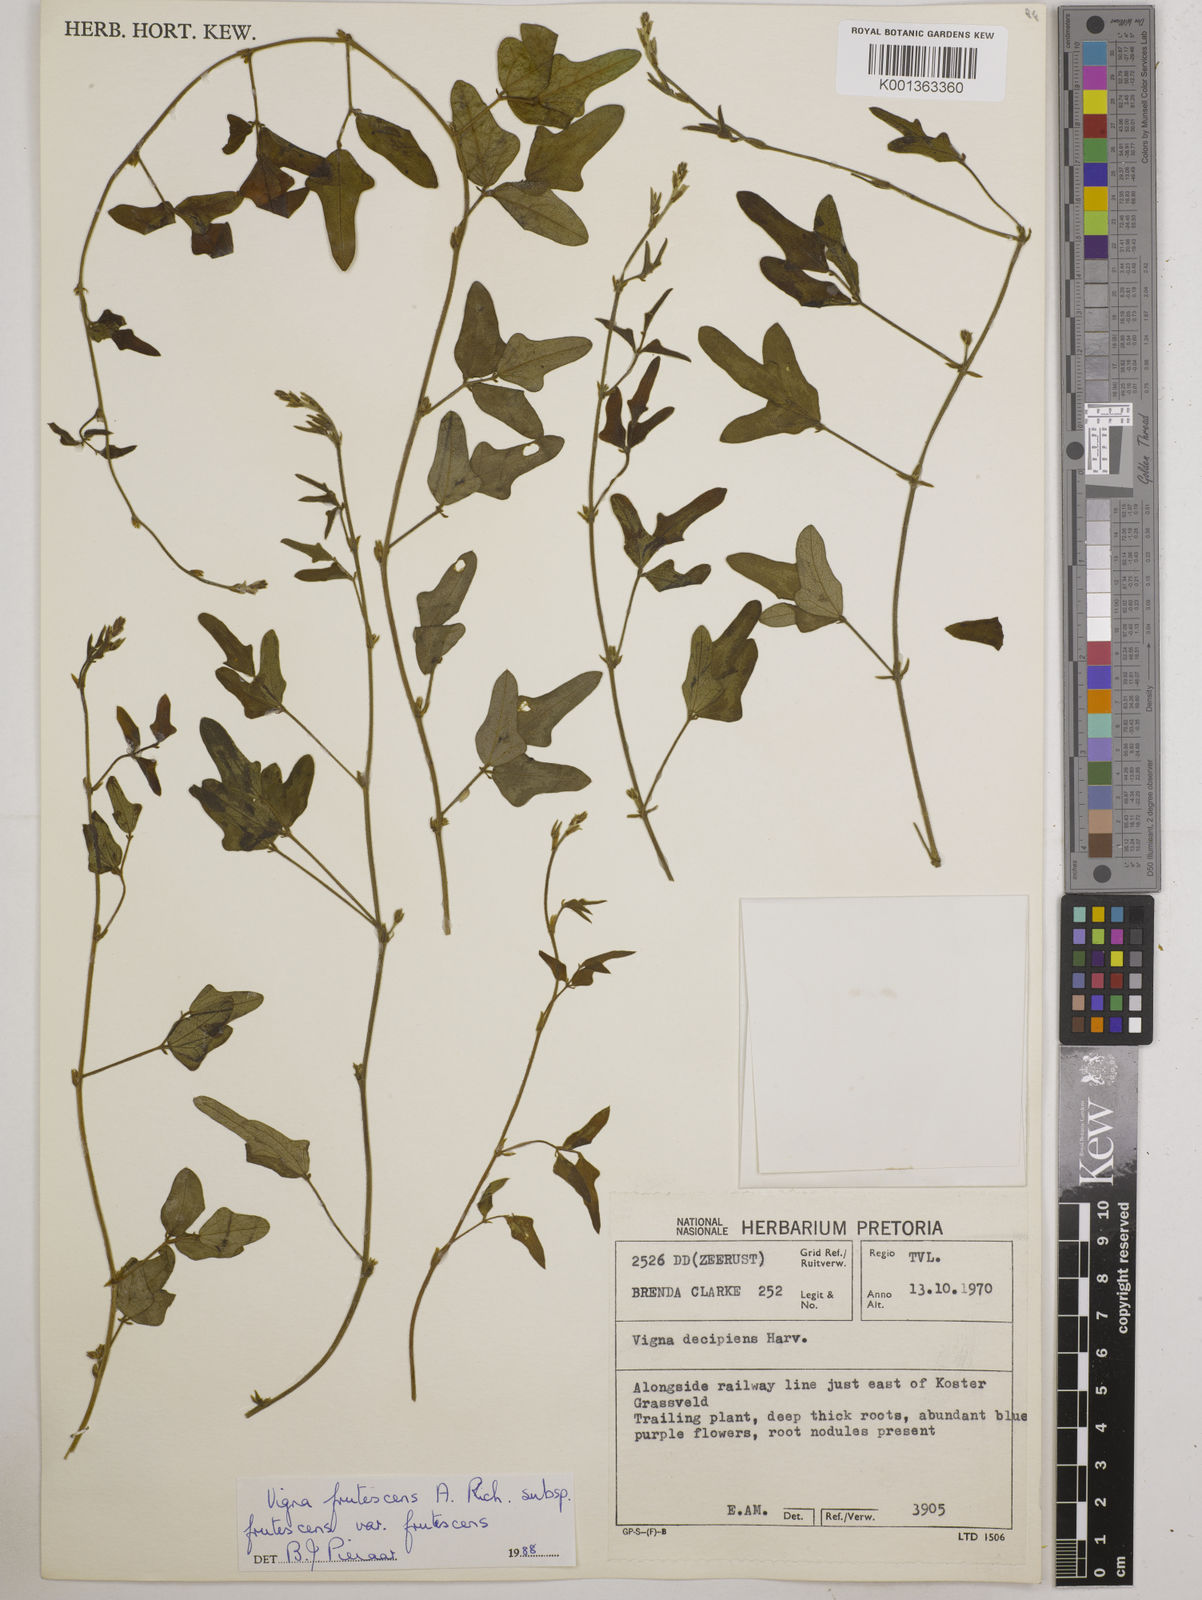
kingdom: Plantae
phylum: Tracheophyta
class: Magnoliopsida
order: Fabales
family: Fabaceae
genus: Vigna
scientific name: Vigna frutescens
